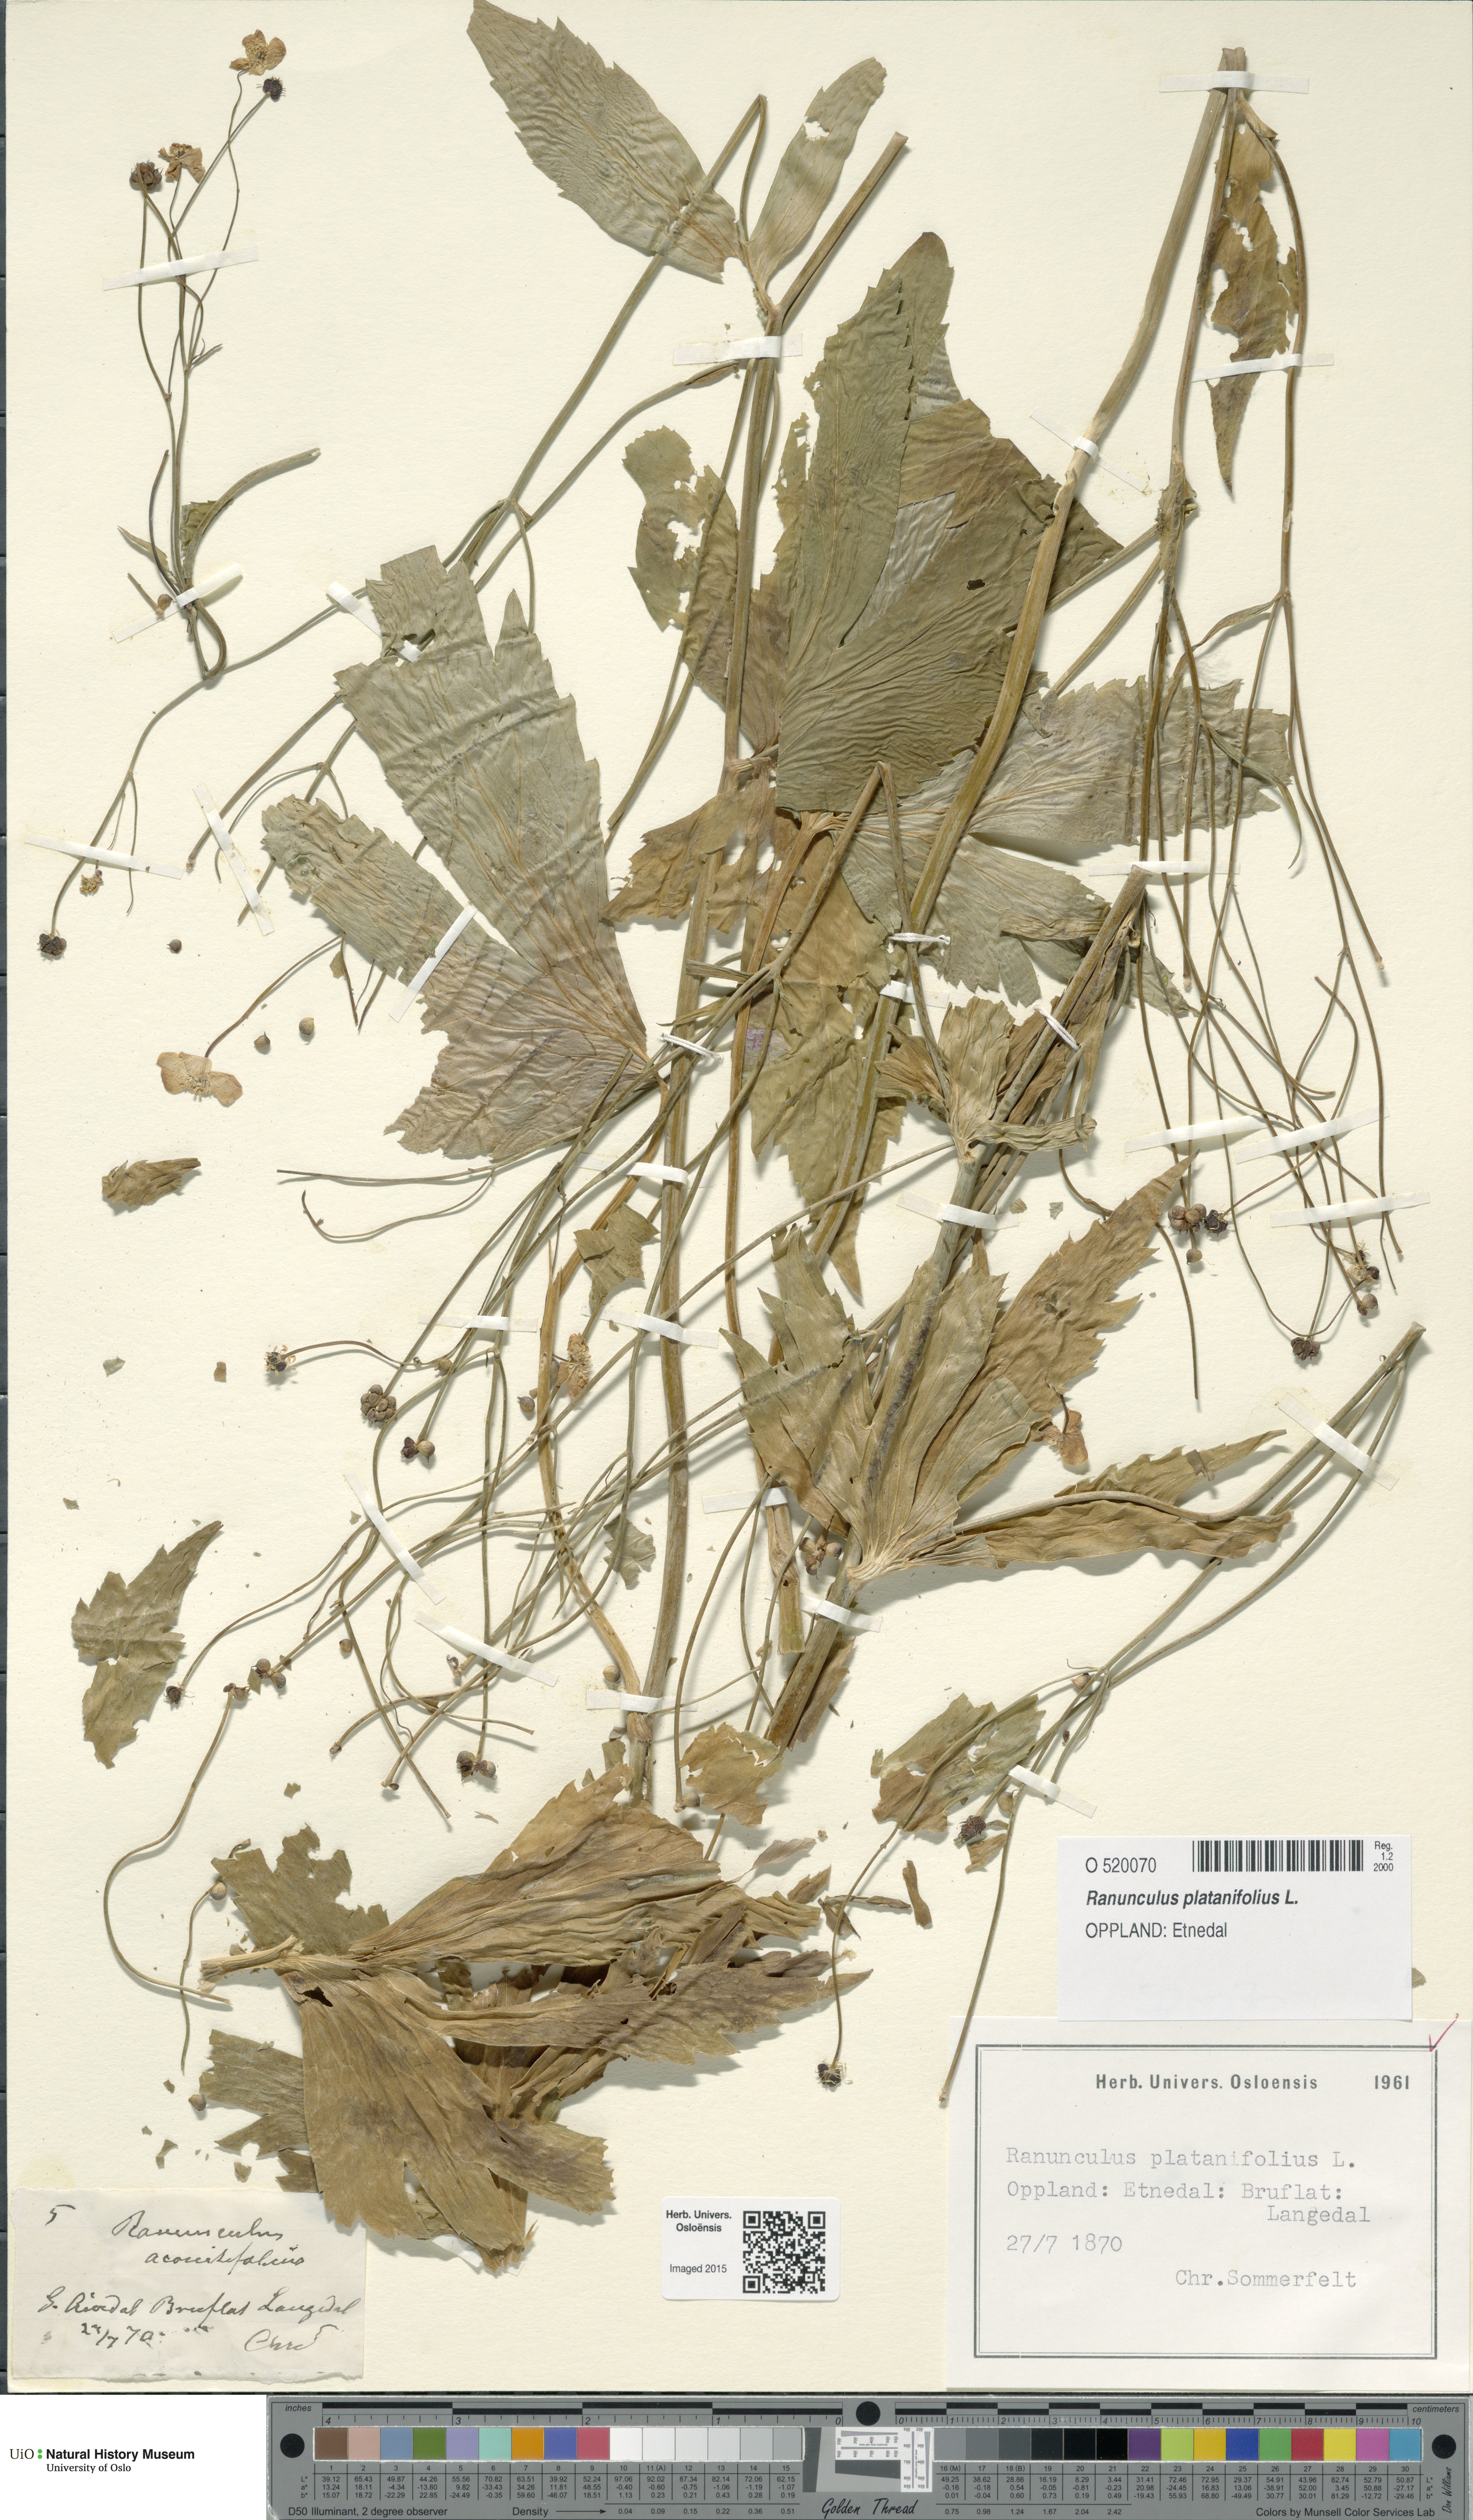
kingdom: Plantae
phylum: Tracheophyta
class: Magnoliopsida
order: Ranunculales
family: Ranunculaceae
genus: Ranunculus
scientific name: Ranunculus platanifolius
